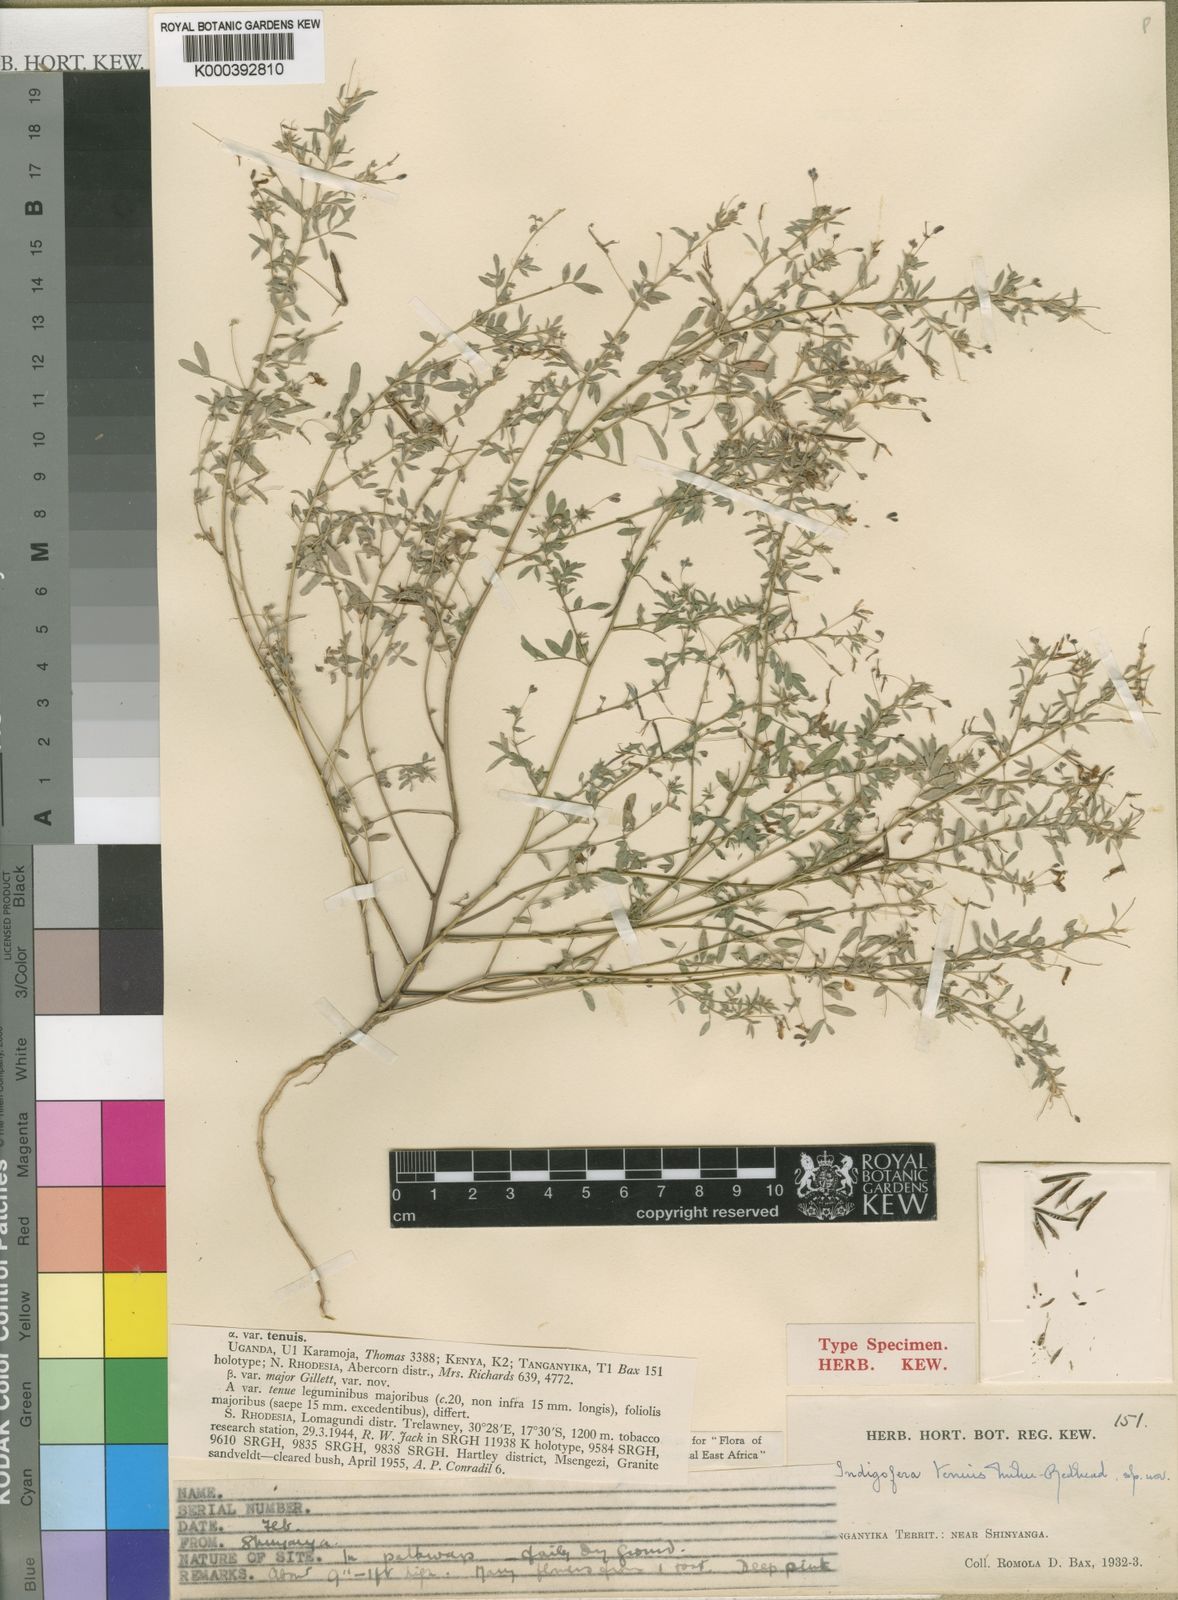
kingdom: Plantae
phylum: Tracheophyta
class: Magnoliopsida
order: Fabales
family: Fabaceae
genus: Indigofera
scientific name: Indigofera dissitiflora
